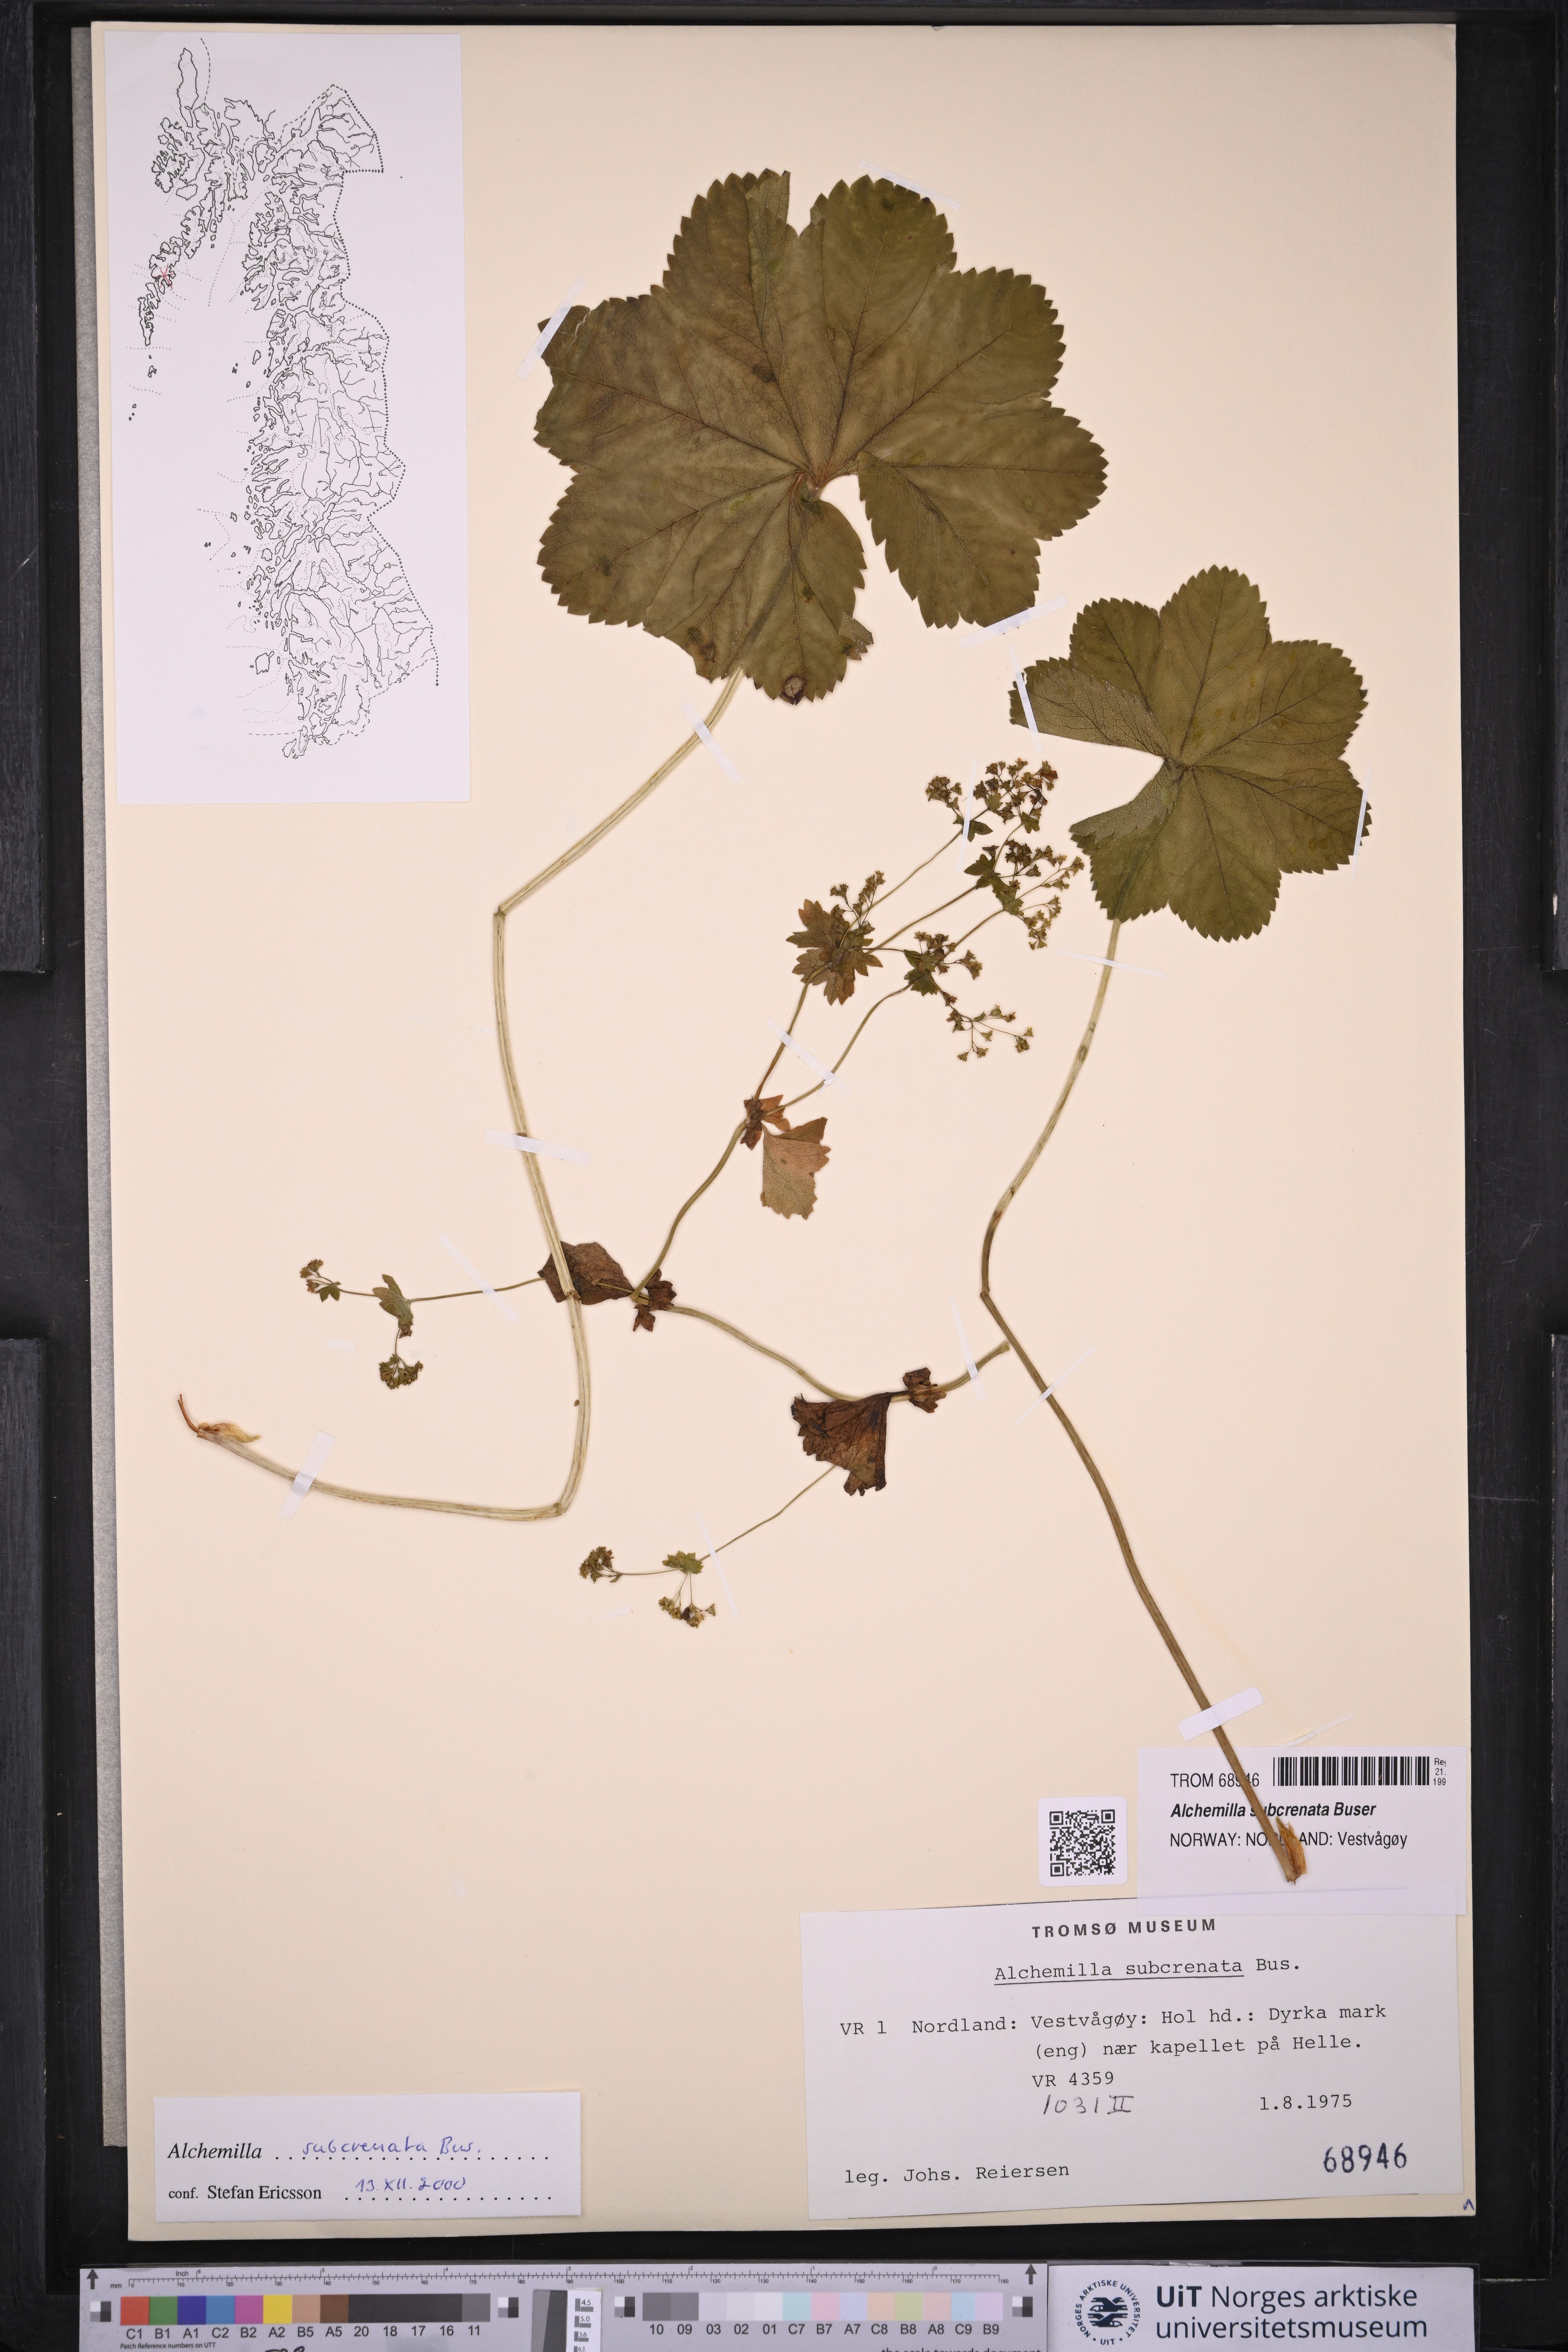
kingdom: Plantae
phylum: Tracheophyta
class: Magnoliopsida
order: Rosales
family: Rosaceae
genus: Alchemilla
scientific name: Alchemilla subcrenata
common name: Broadtooth lady's mantle
